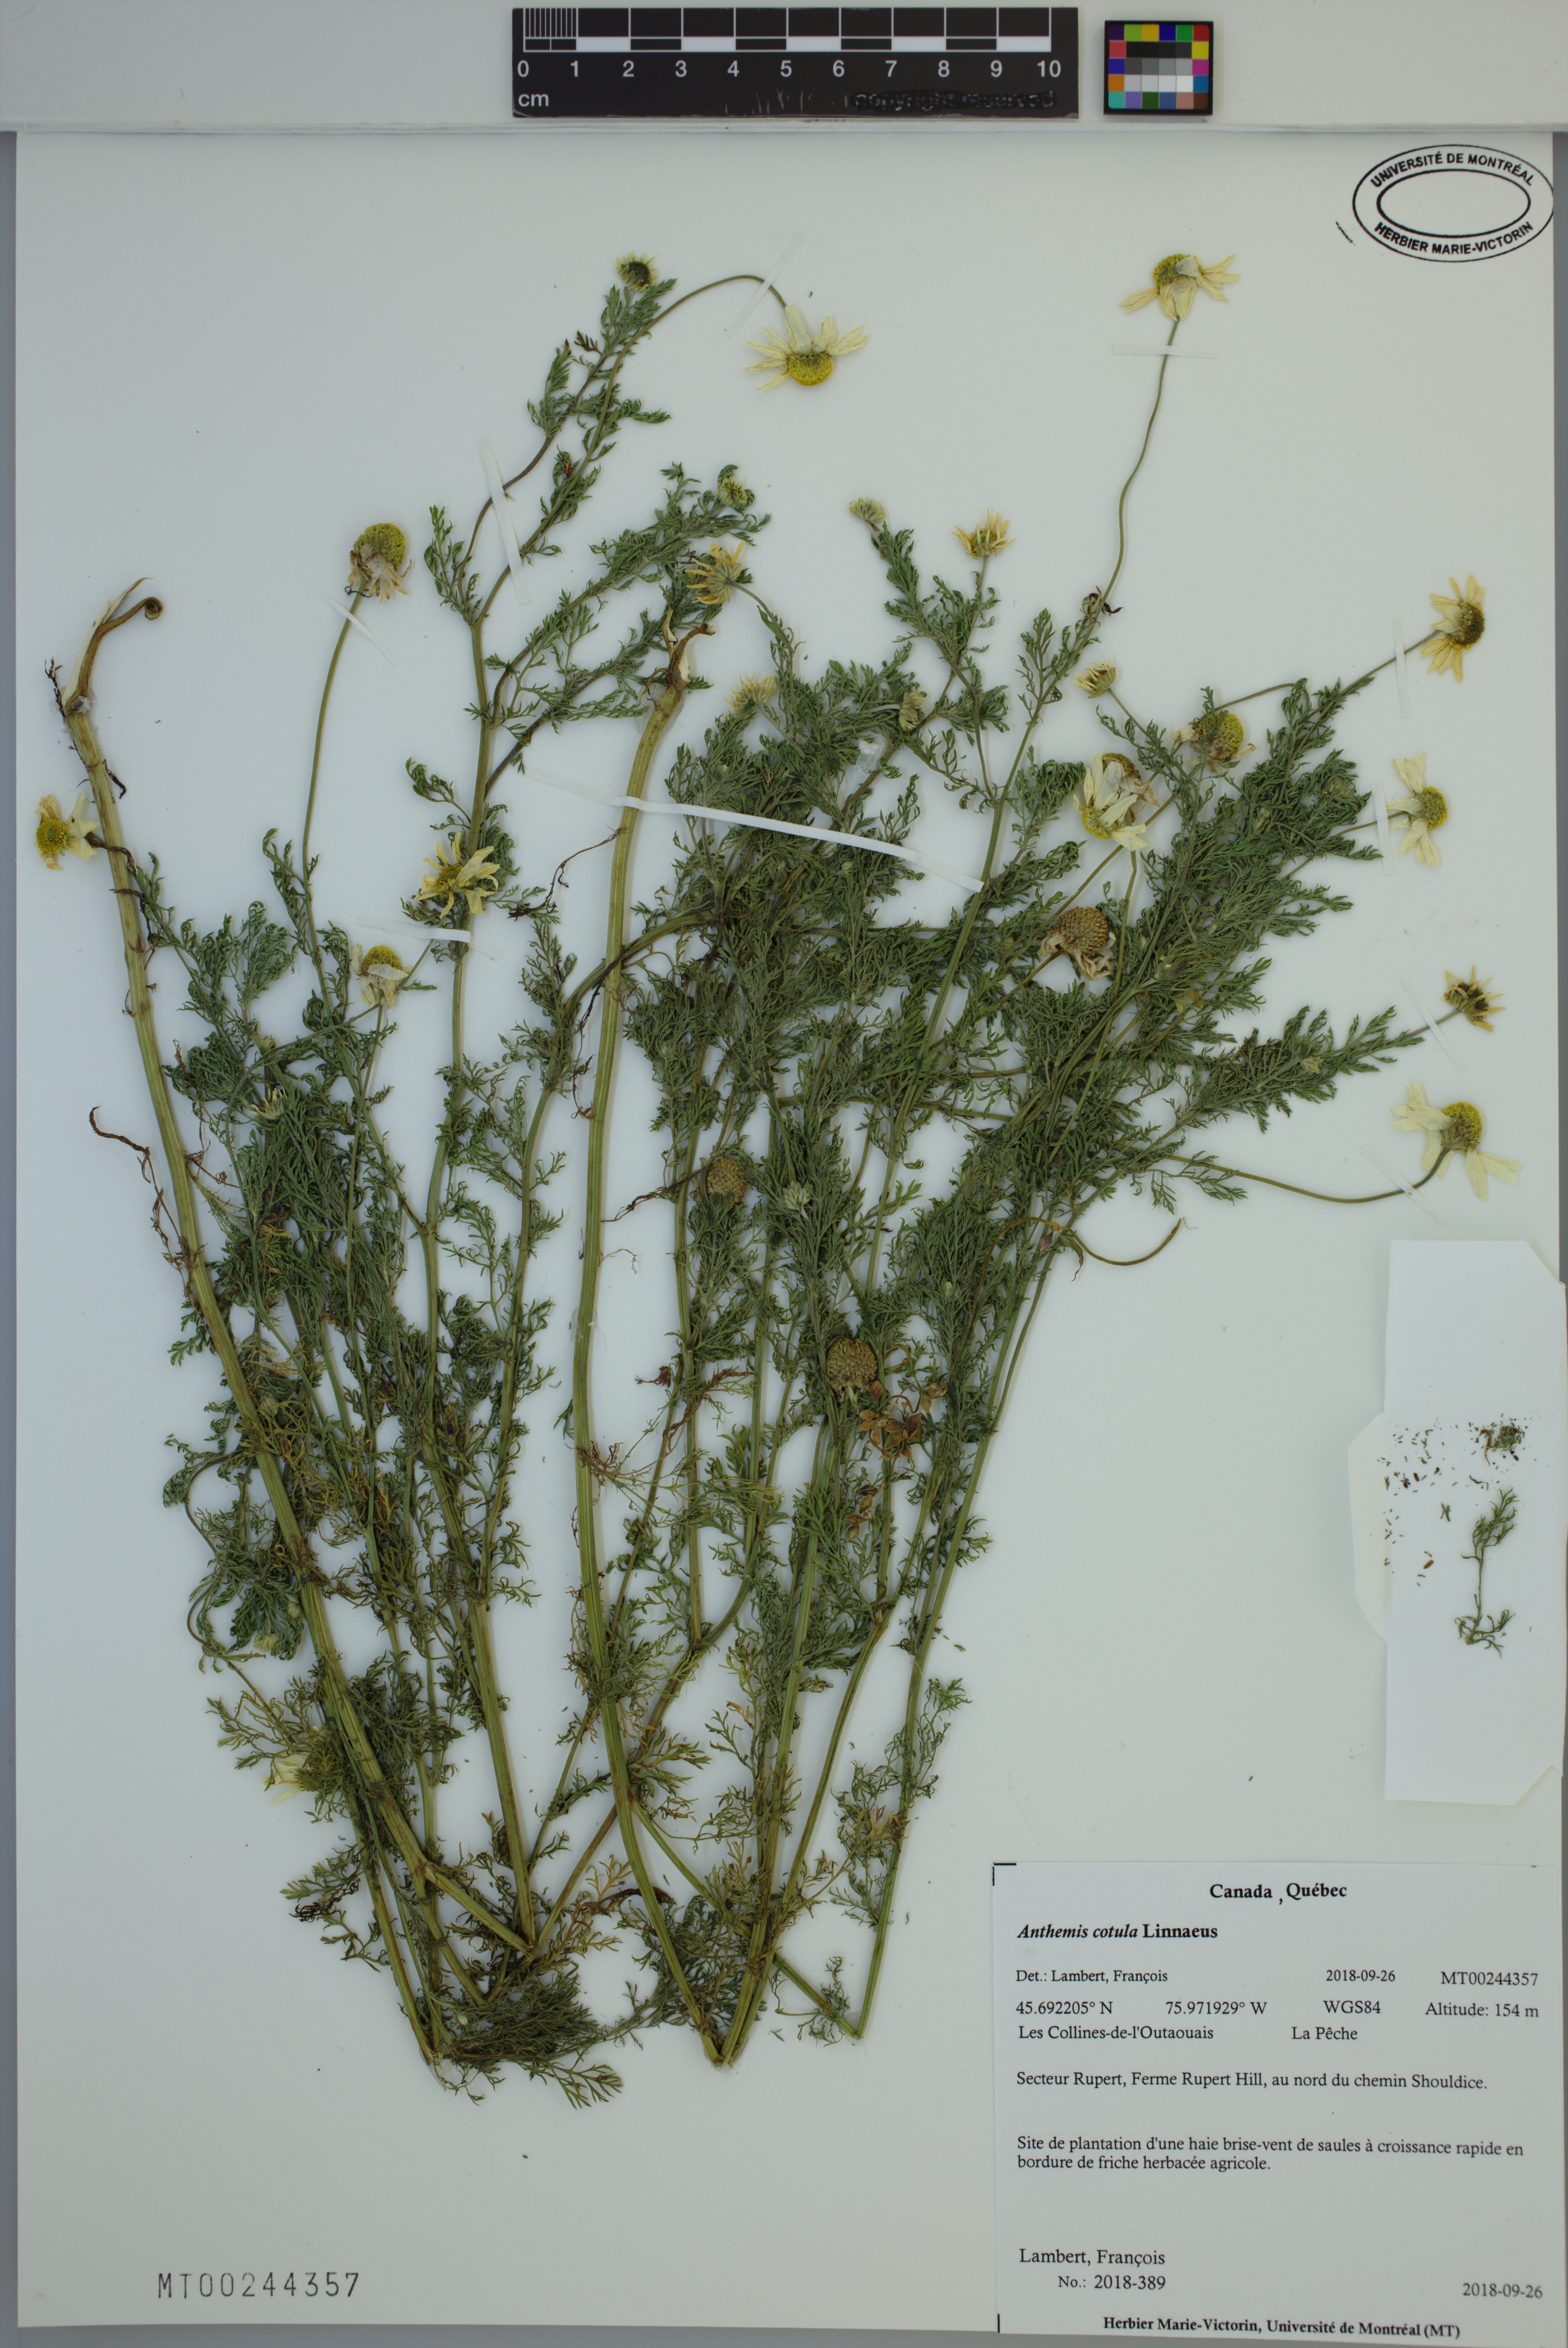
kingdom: Plantae
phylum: Tracheophyta
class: Magnoliopsida
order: Asterales
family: Asteraceae
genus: Anthemis
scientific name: Anthemis cotula
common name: Stinking chamomile
